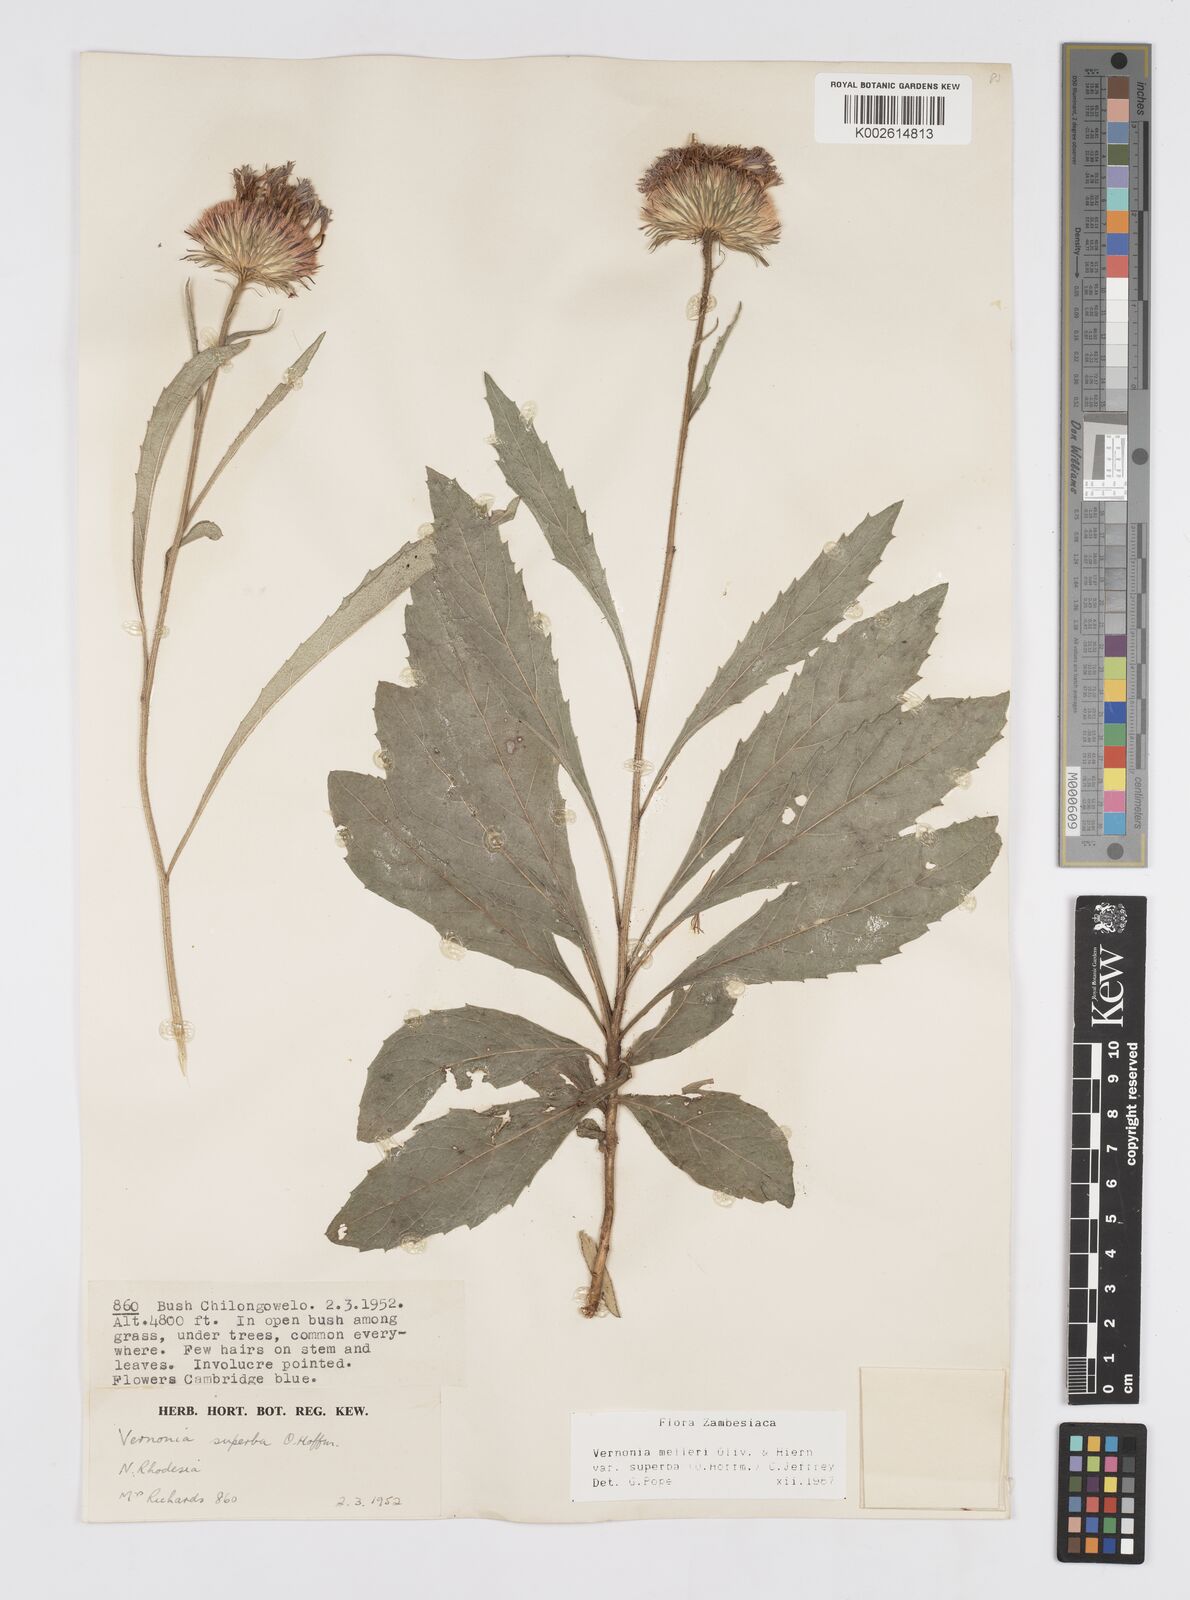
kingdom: Plantae
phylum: Tracheophyta
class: Magnoliopsida
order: Asterales
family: Asteraceae
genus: Linzia
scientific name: Linzia melleri
